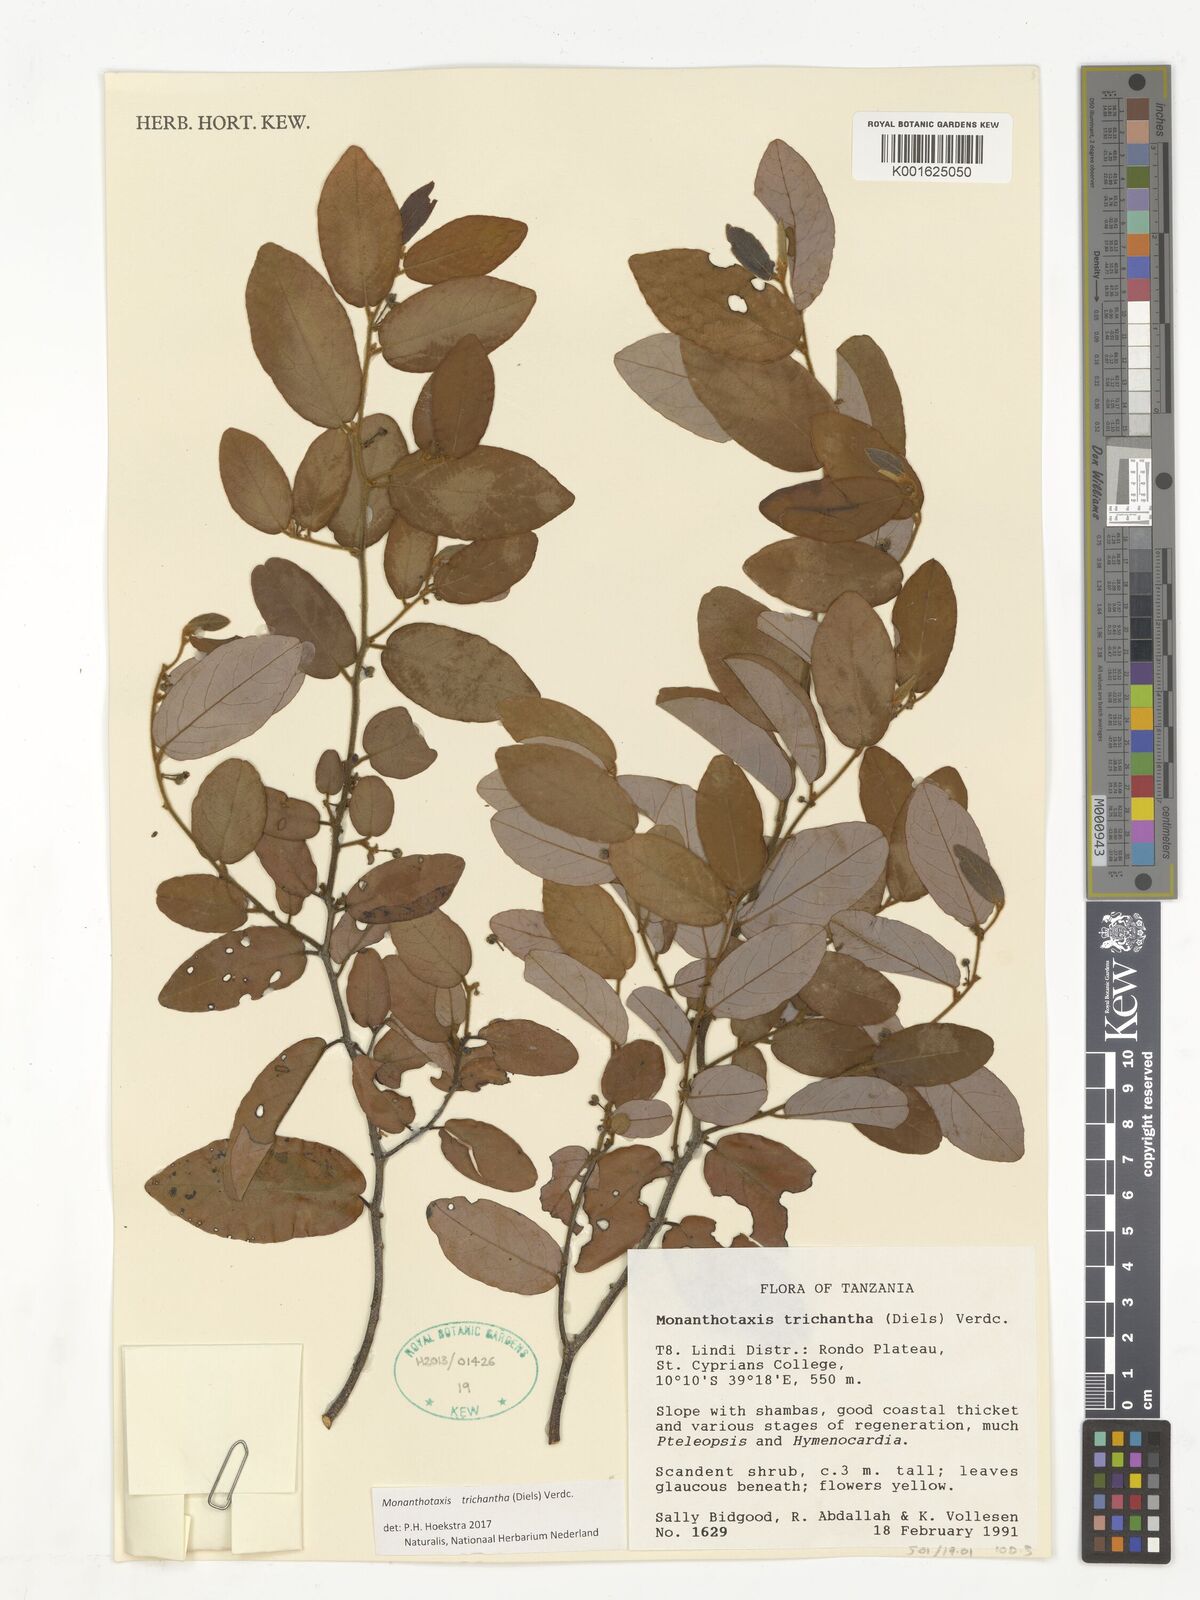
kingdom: Plantae
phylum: Tracheophyta
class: Magnoliopsida
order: Magnoliales
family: Annonaceae
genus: Monanthotaxis
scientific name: Monanthotaxis trichantha
